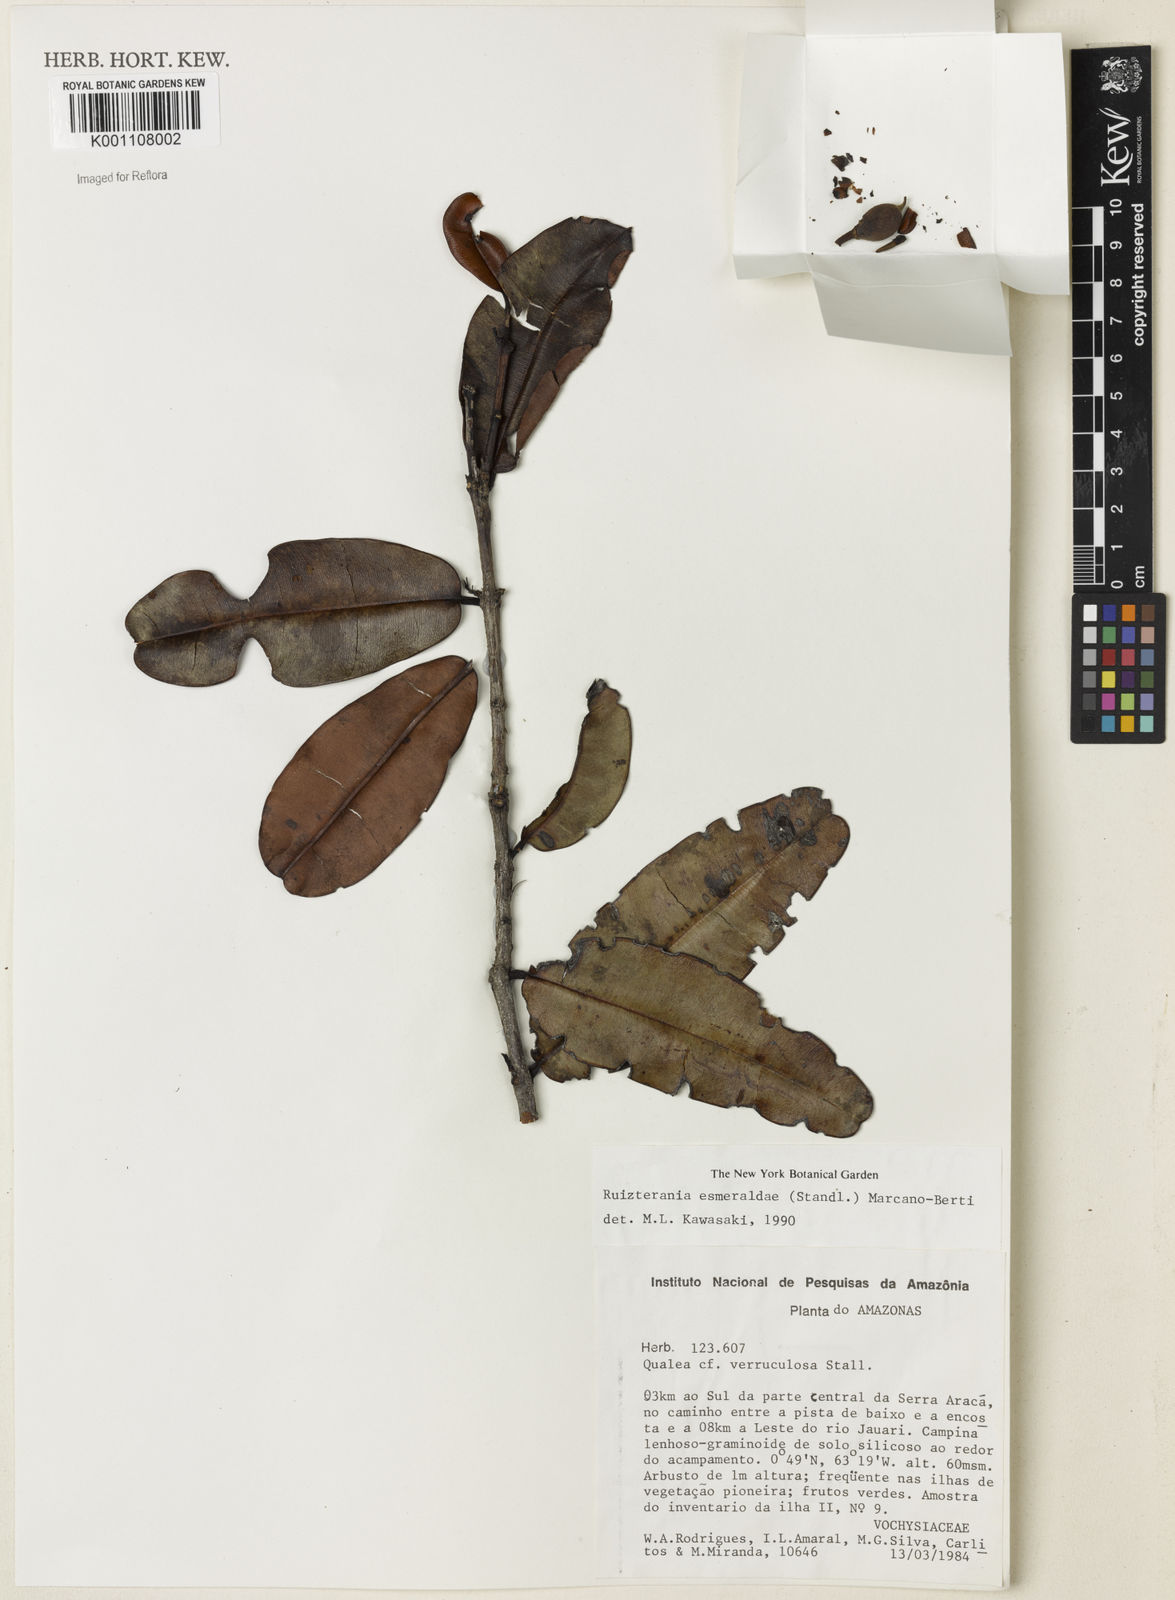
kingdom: Plantae
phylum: Tracheophyta
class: Magnoliopsida
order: Myrtales
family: Vochysiaceae
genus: Ruizterania
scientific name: Ruizterania esmeraldae
